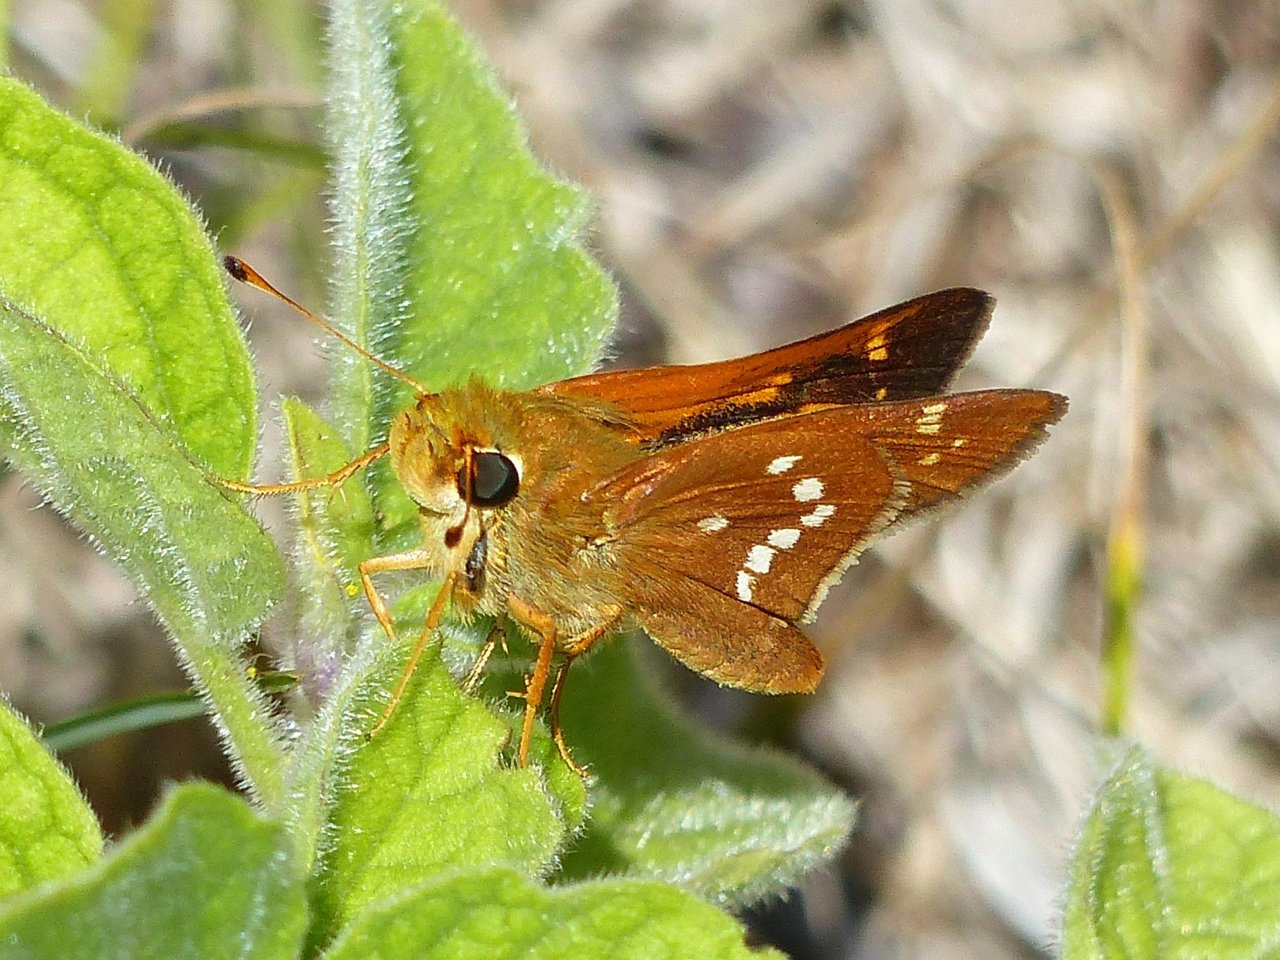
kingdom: Animalia
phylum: Arthropoda
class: Insecta
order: Lepidoptera
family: Hesperiidae
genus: Hesperia
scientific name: Hesperia leonardus
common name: Leonard's Skipper
